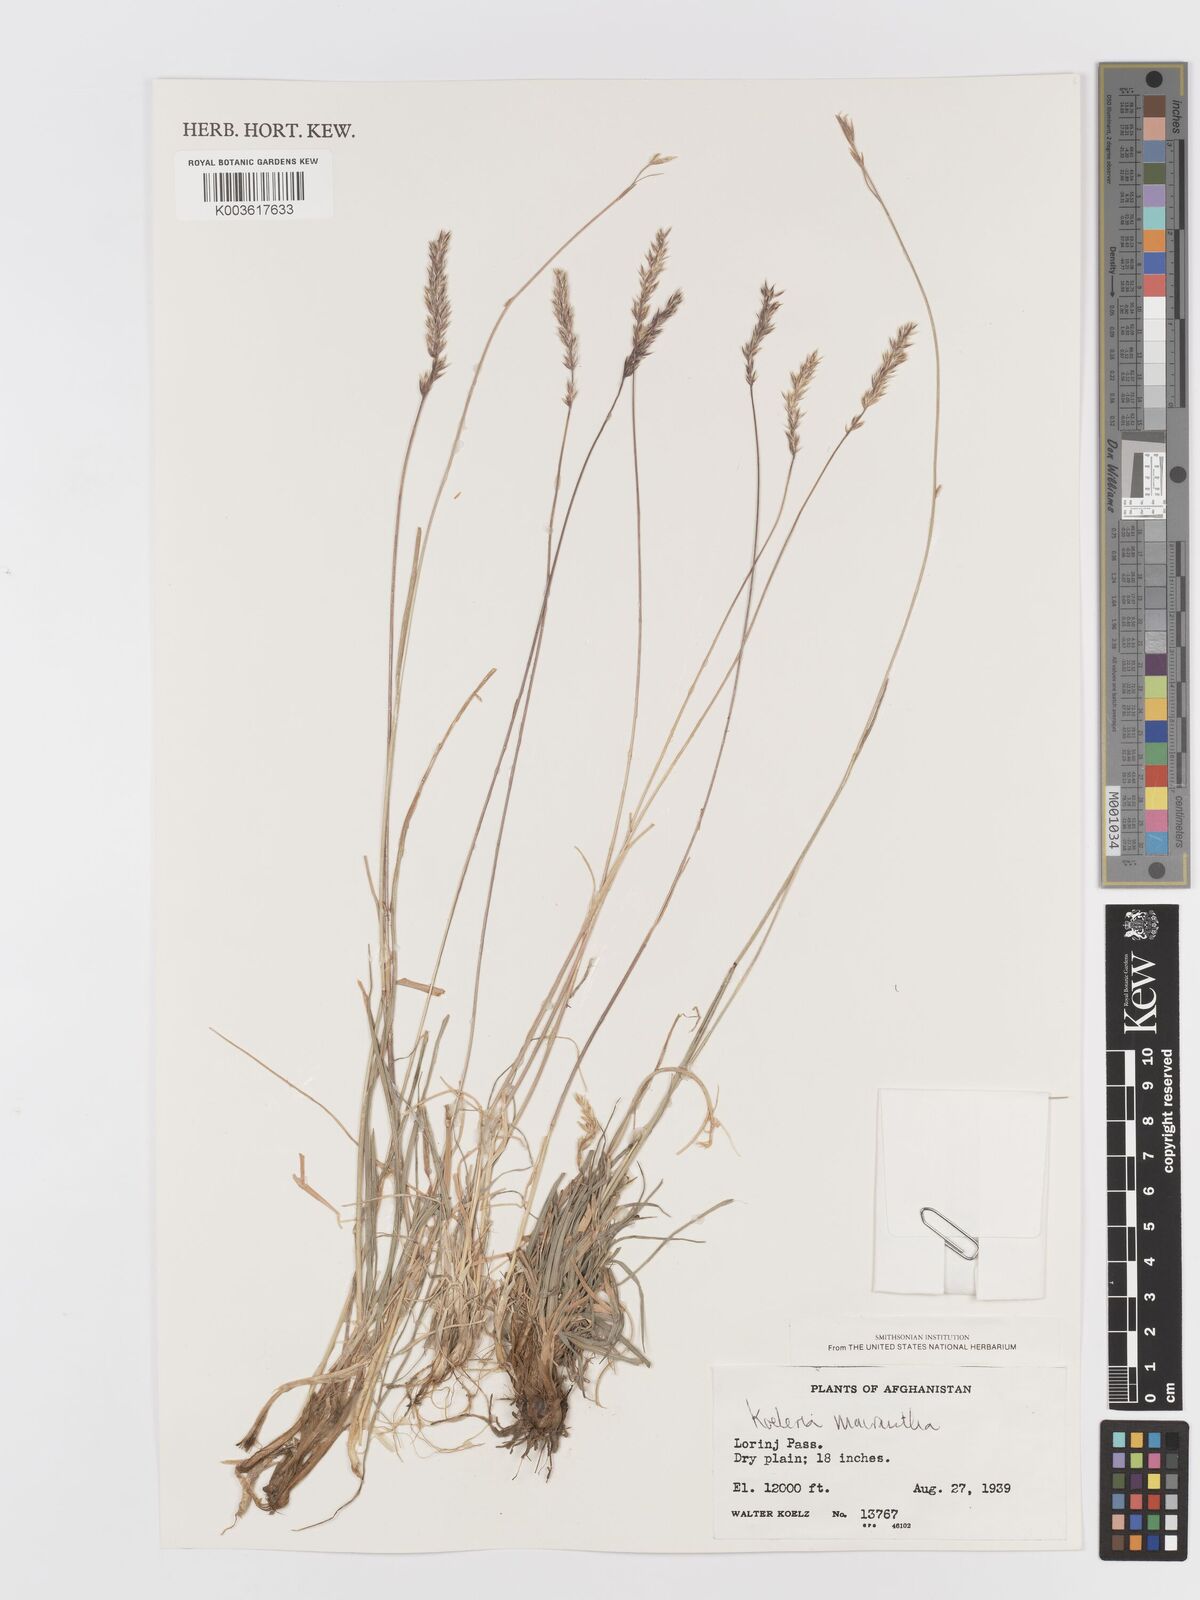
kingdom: Plantae
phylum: Tracheophyta
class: Liliopsida
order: Poales
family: Poaceae
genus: Koeleria
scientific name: Koeleria macrantha
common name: Crested hair-grass
